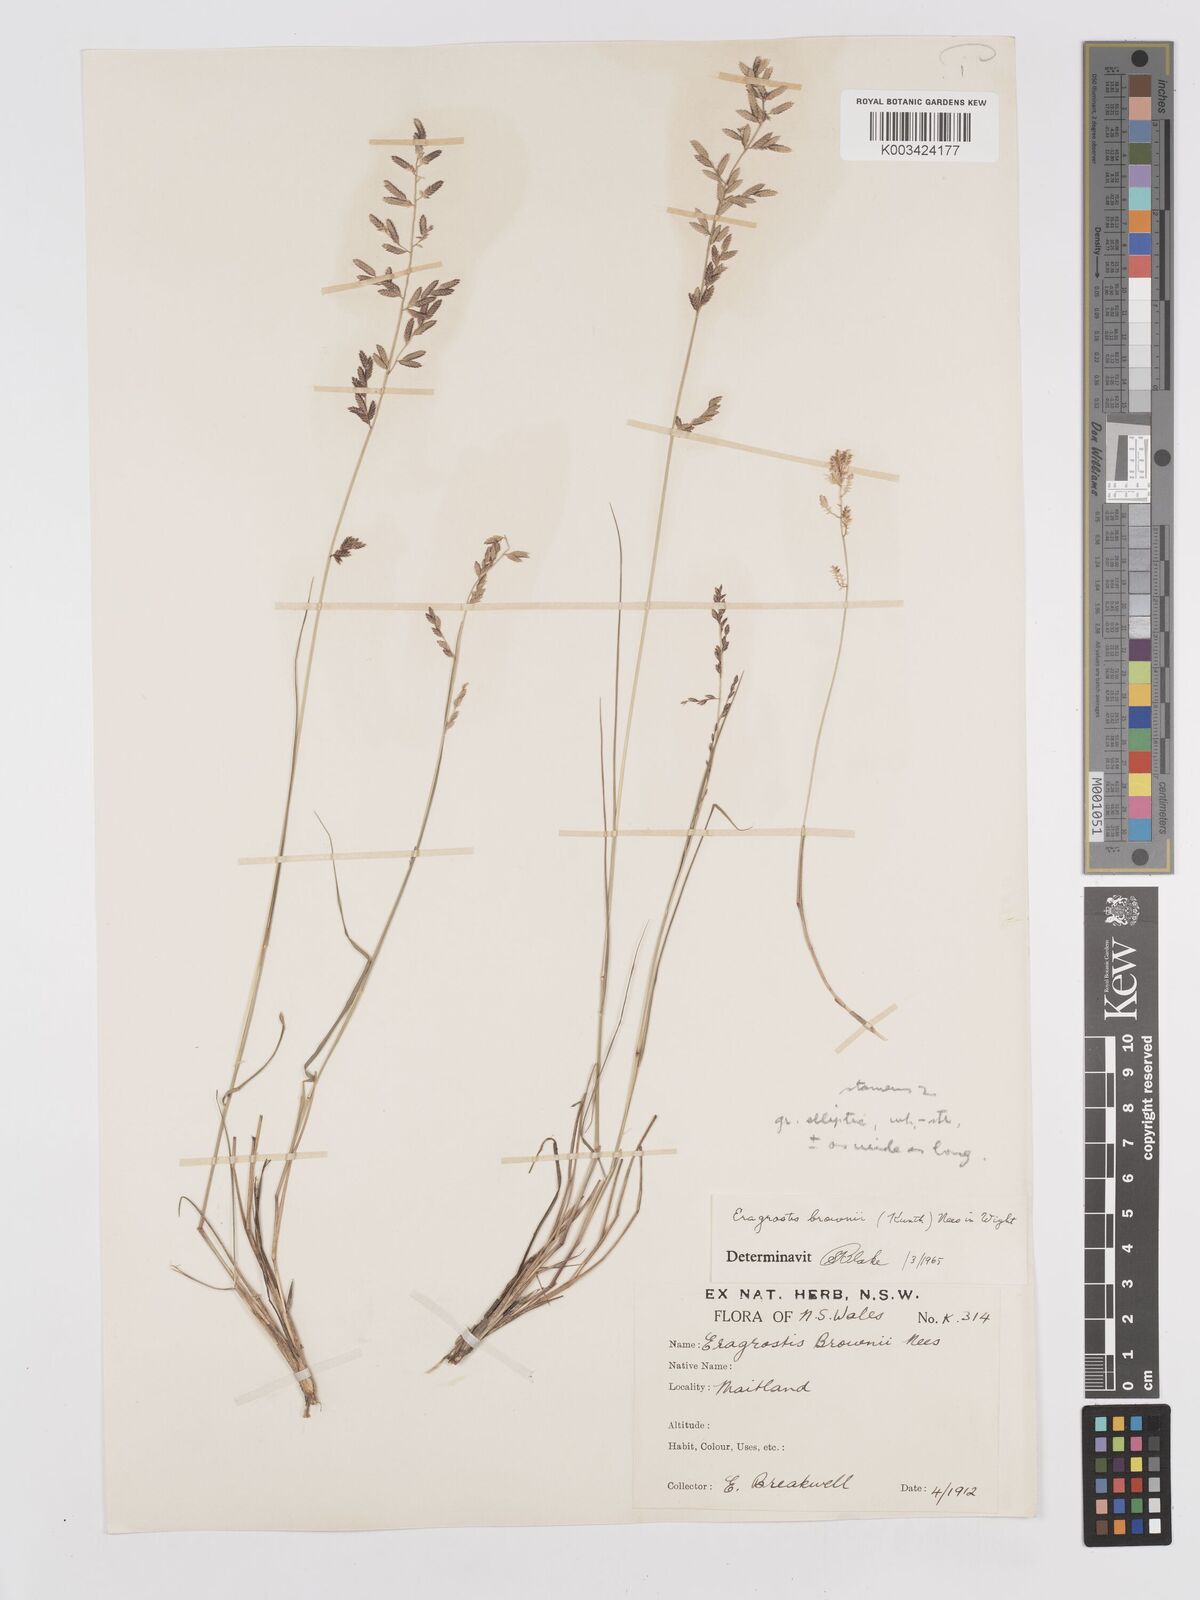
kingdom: Plantae
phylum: Tracheophyta
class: Liliopsida
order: Poales
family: Poaceae
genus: Eragrostis
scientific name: Eragrostis brownii
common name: Lovegrass
